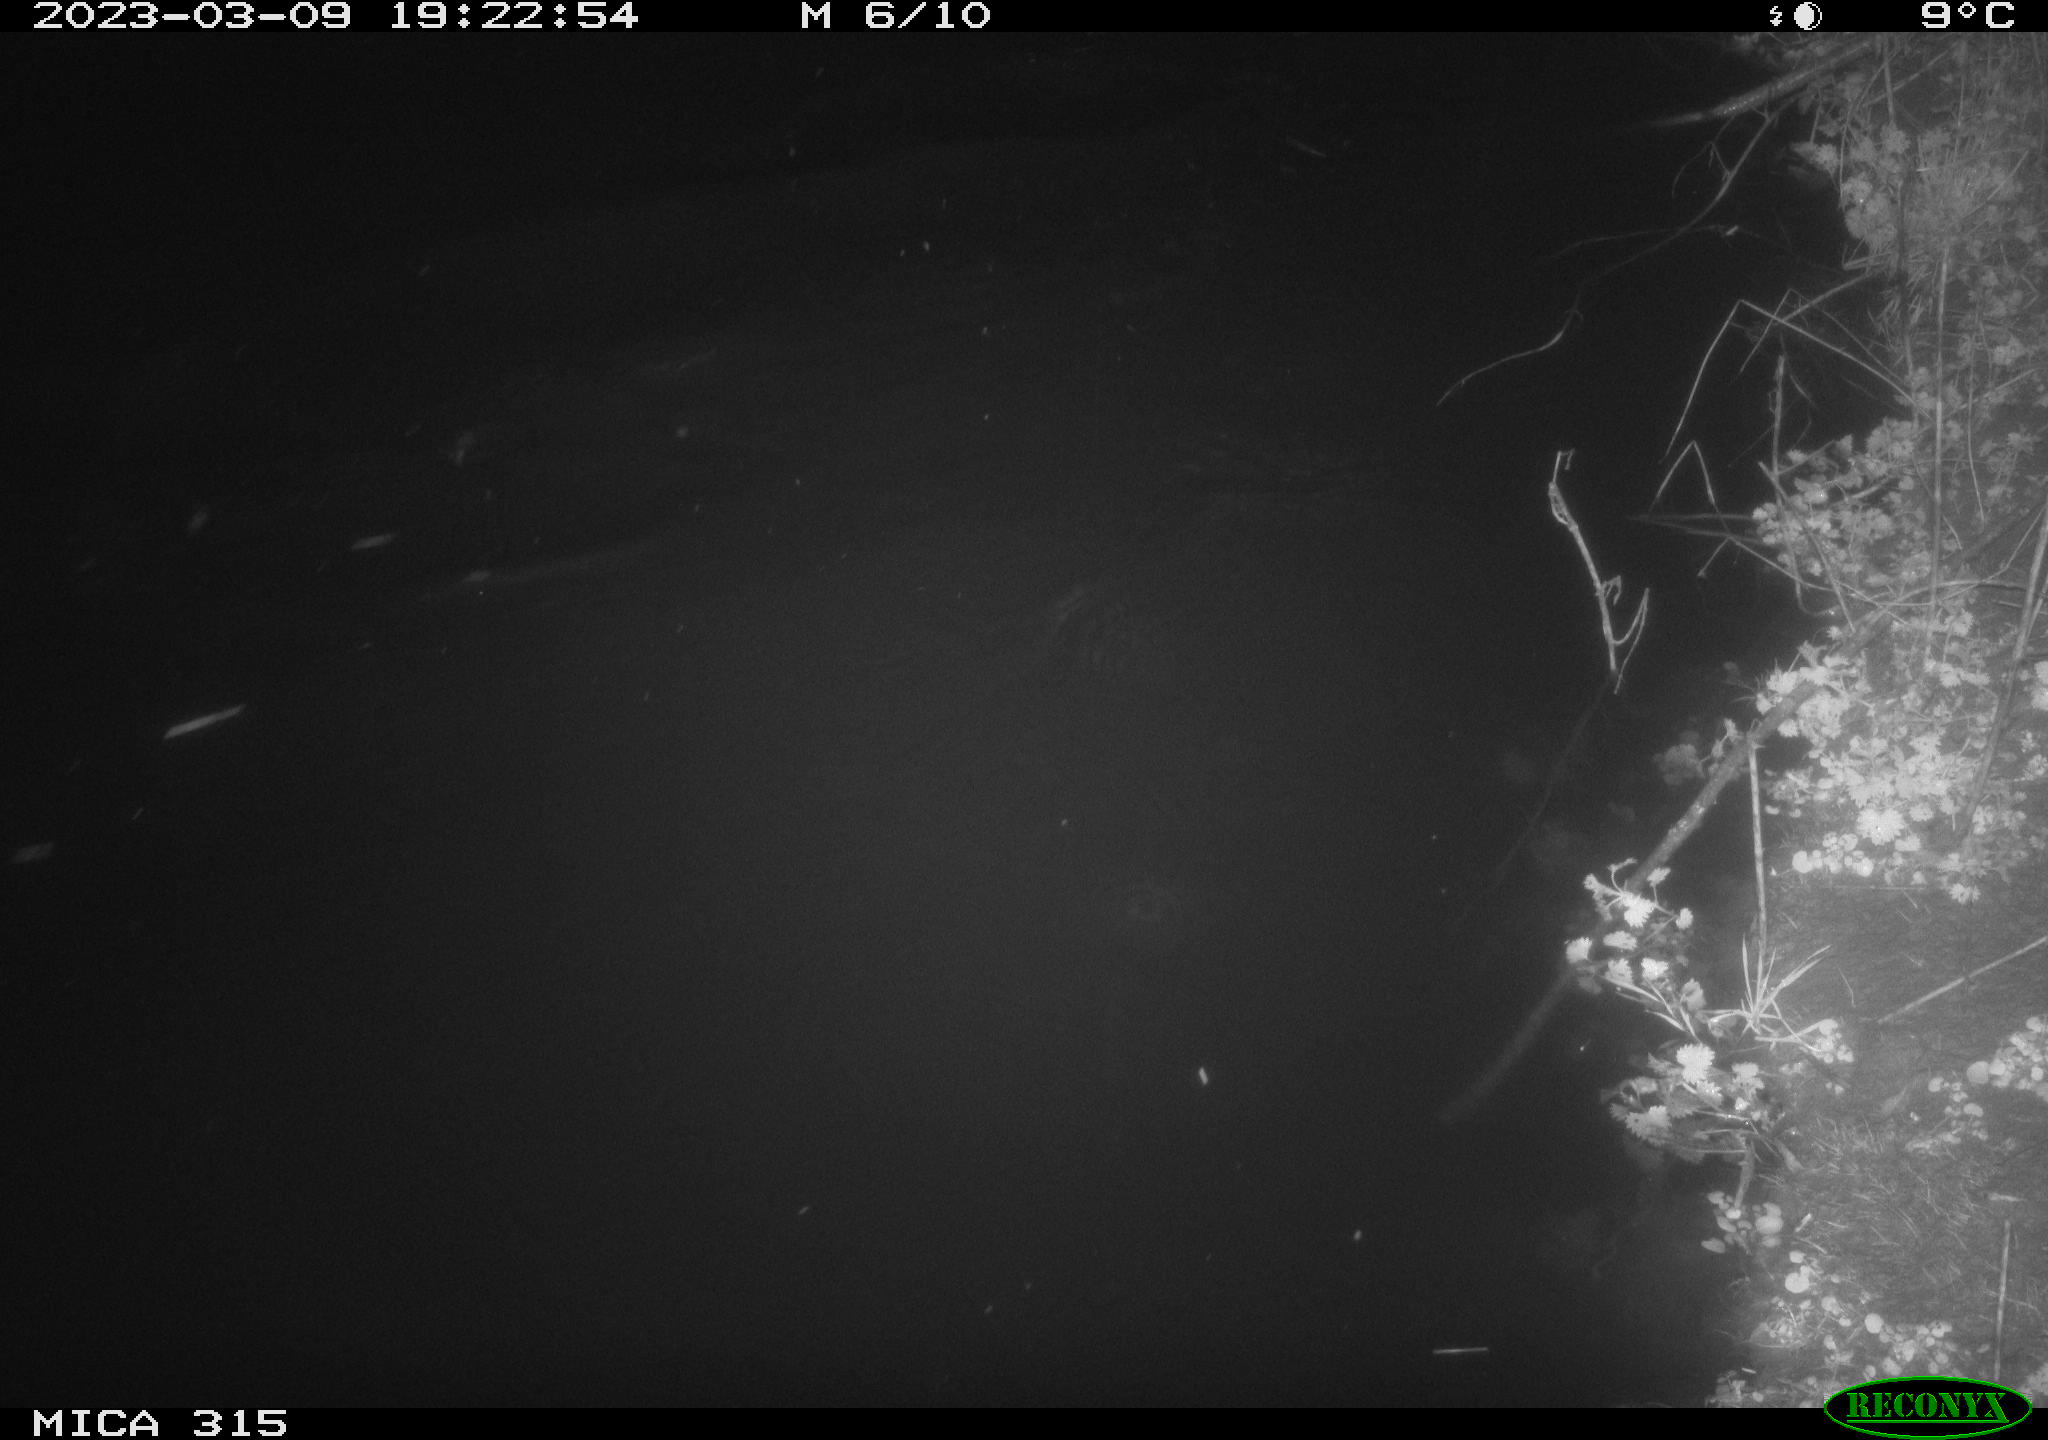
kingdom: Animalia
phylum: Chordata
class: Aves
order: Anseriformes
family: Anatidae
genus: Anas
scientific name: Anas
